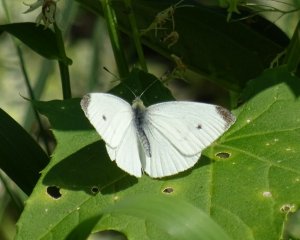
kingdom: Animalia
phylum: Arthropoda
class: Insecta
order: Lepidoptera
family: Pieridae
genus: Pieris
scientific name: Pieris rapae
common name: Cabbage White
